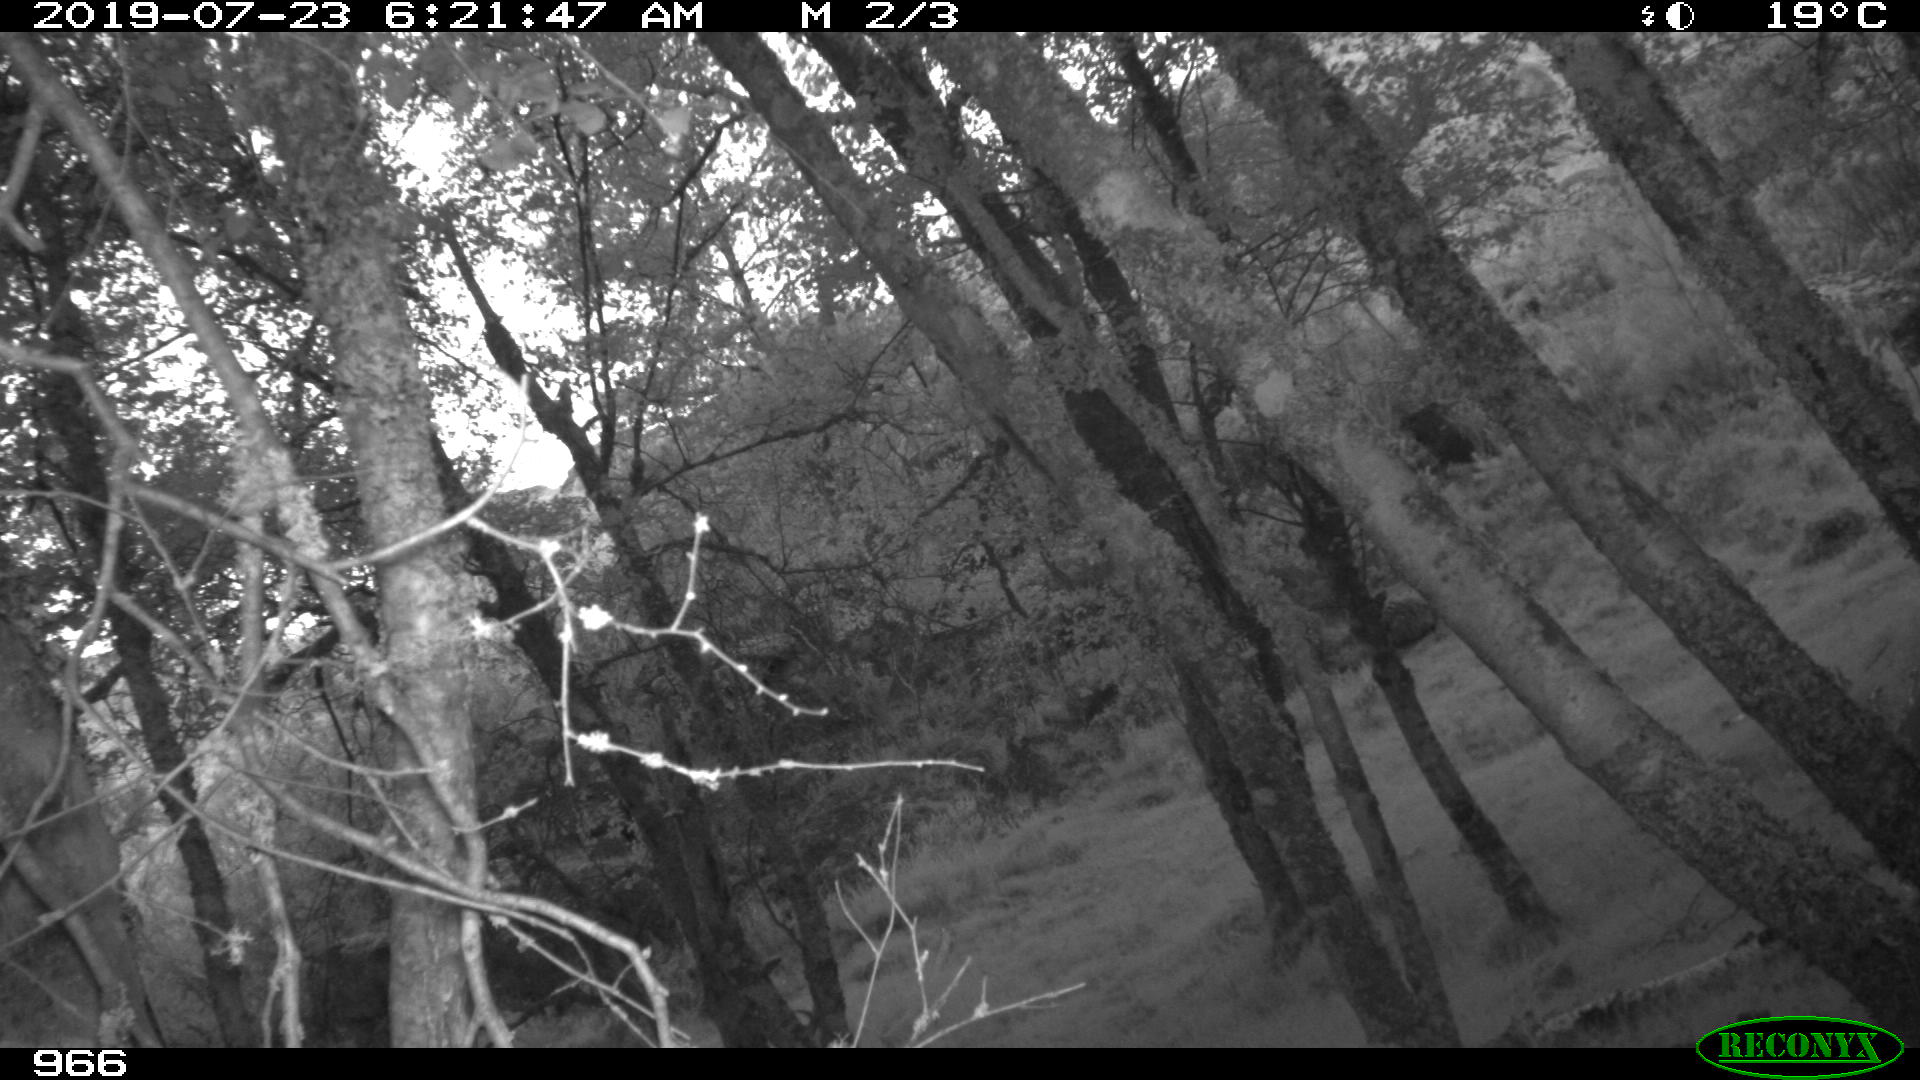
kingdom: Animalia
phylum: Chordata
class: Mammalia
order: Artiodactyla
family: Cervidae
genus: Capreolus
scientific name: Capreolus capreolus
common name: Western roe deer
